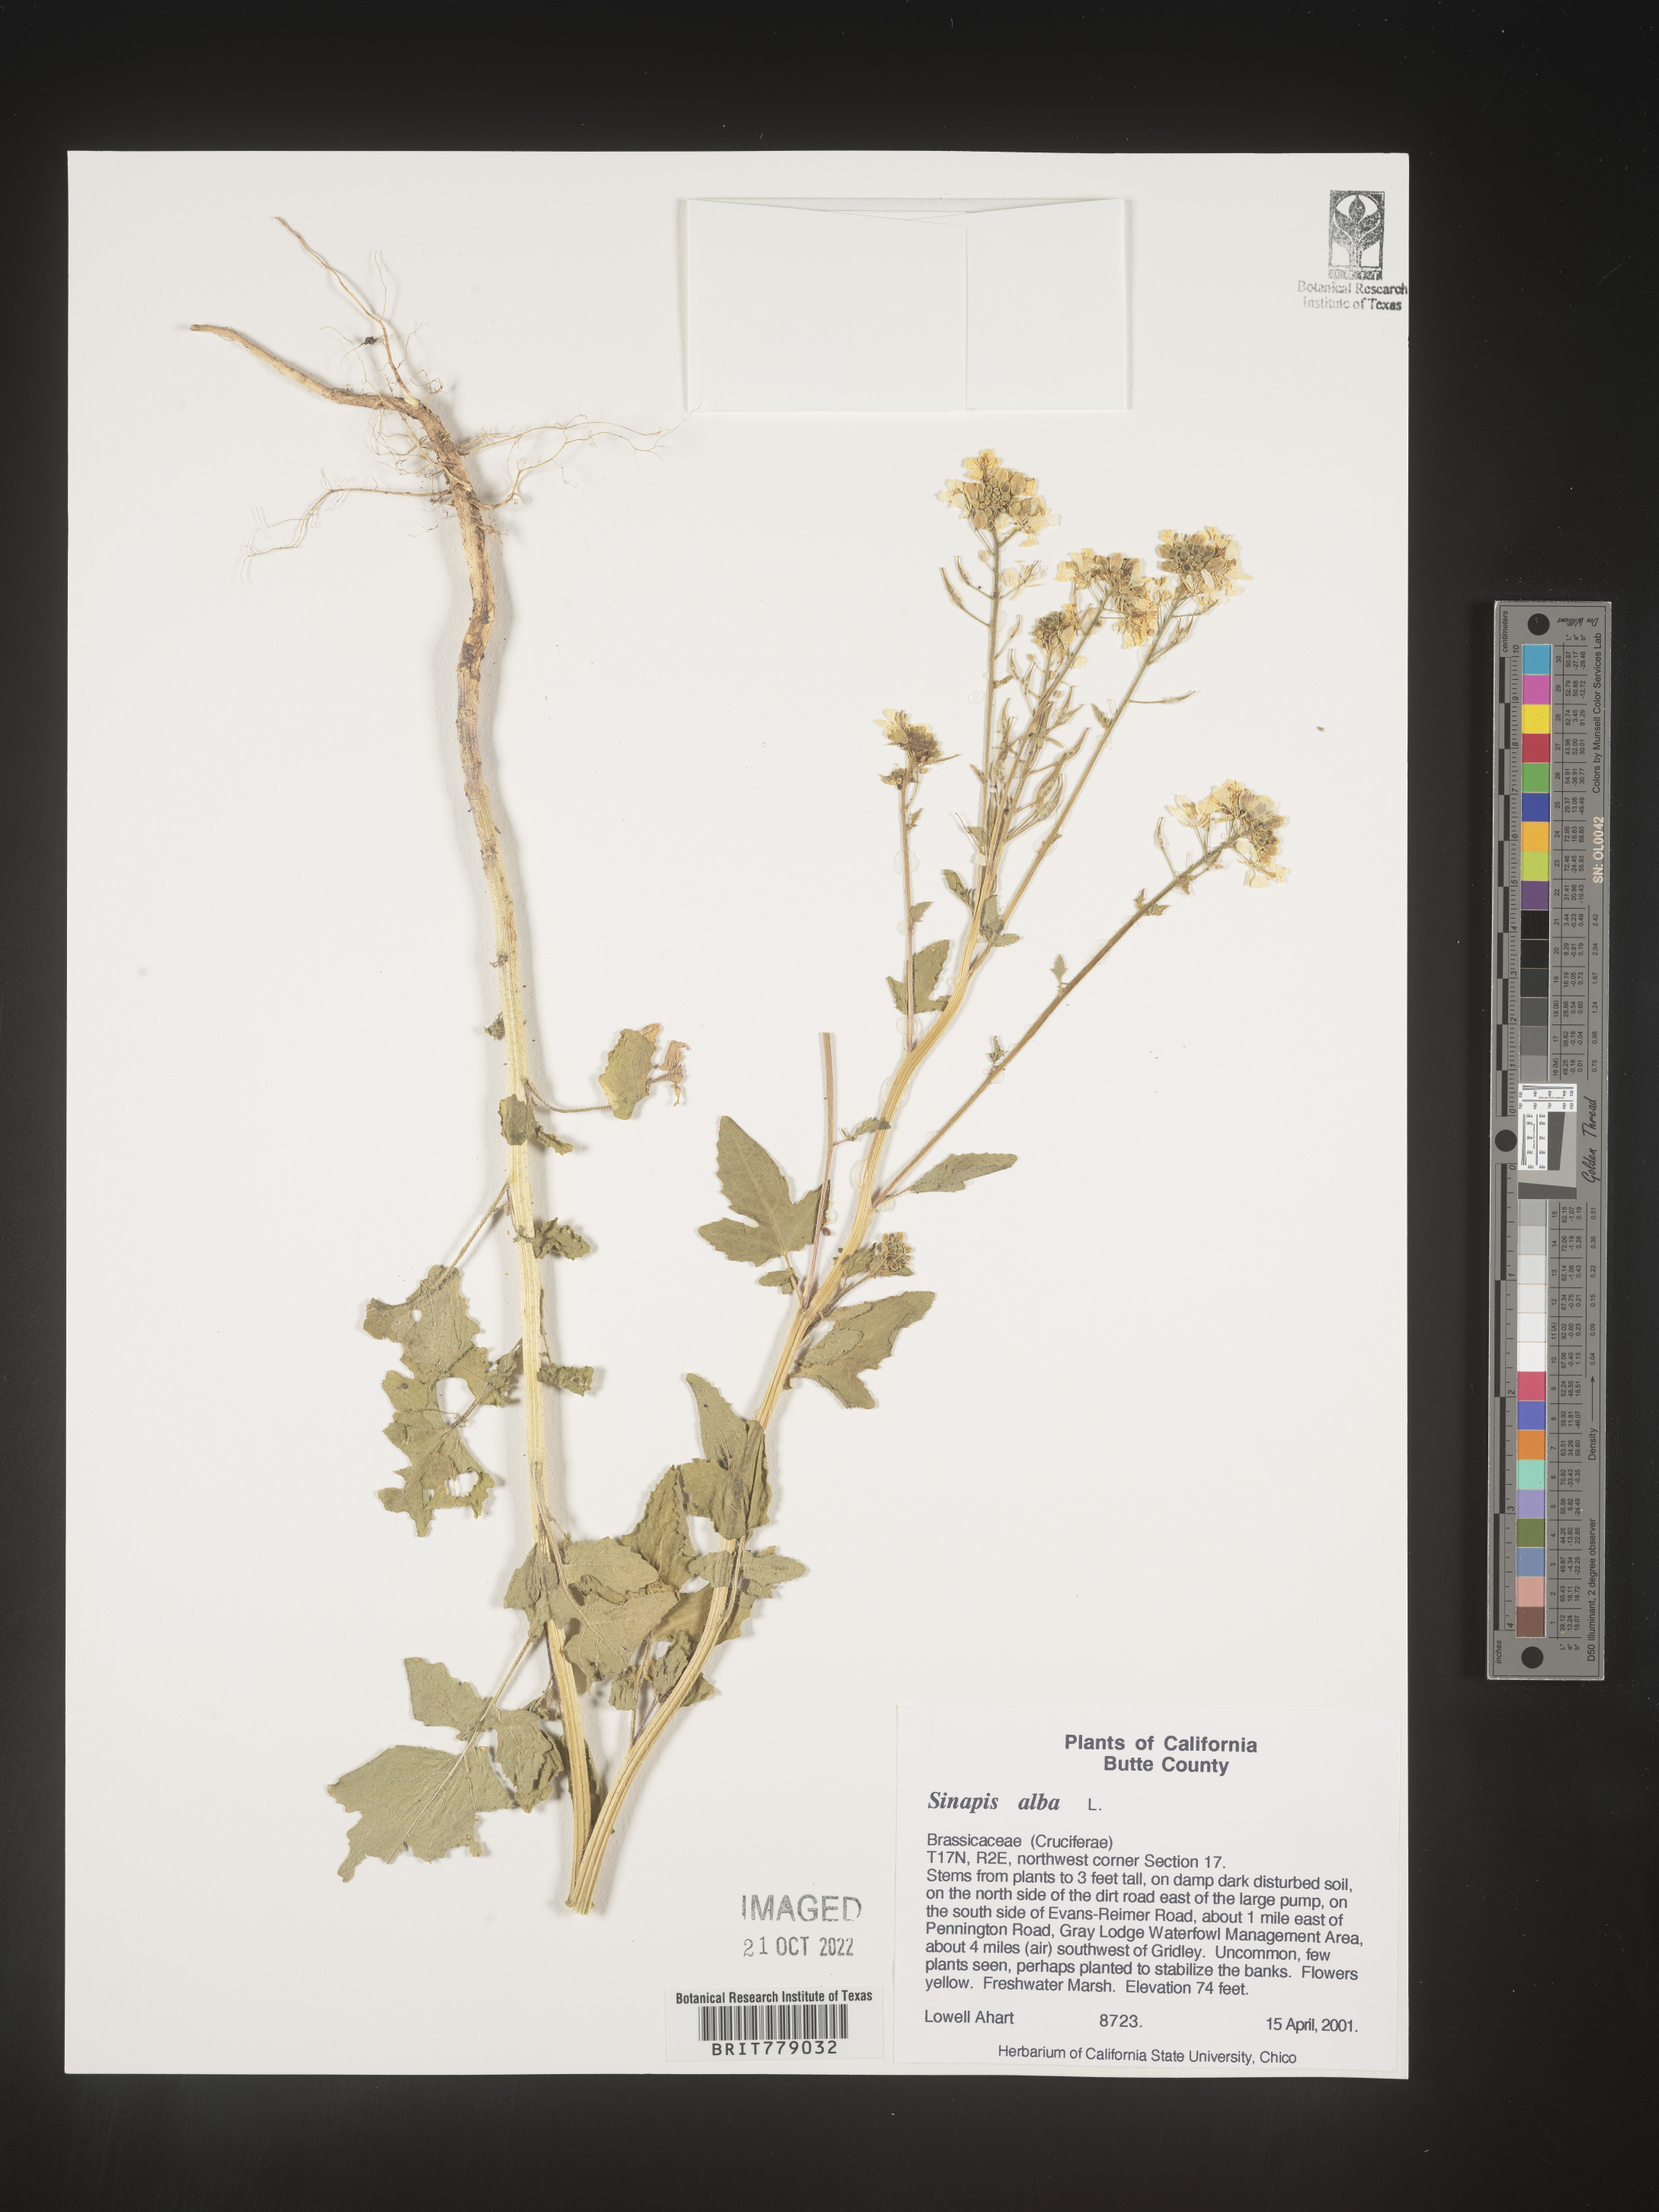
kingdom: Plantae
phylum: Tracheophyta
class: Magnoliopsida
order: Brassicales
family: Brassicaceae
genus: Sinapis
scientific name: Sinapis
